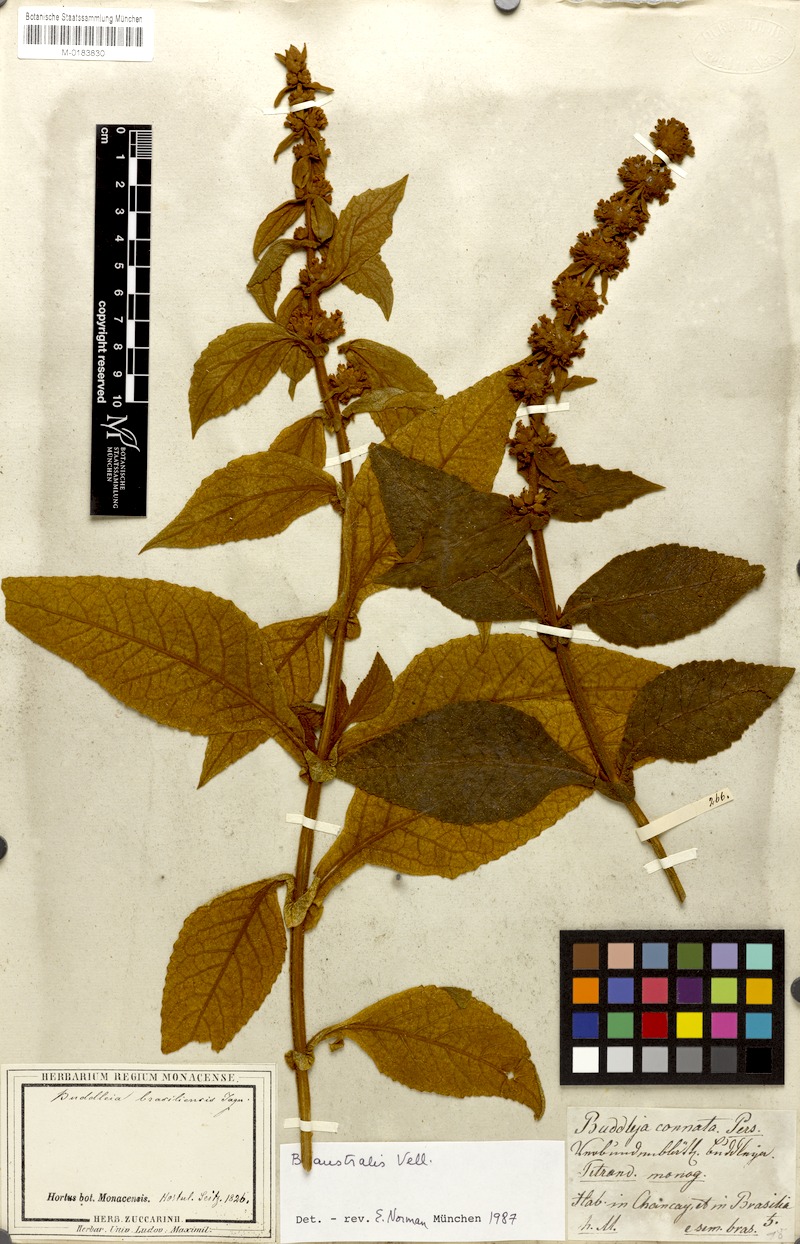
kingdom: Plantae
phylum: Tracheophyta
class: Magnoliopsida
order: Lamiales
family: Scrophulariaceae
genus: Buddleja
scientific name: Buddleja stachyoides
